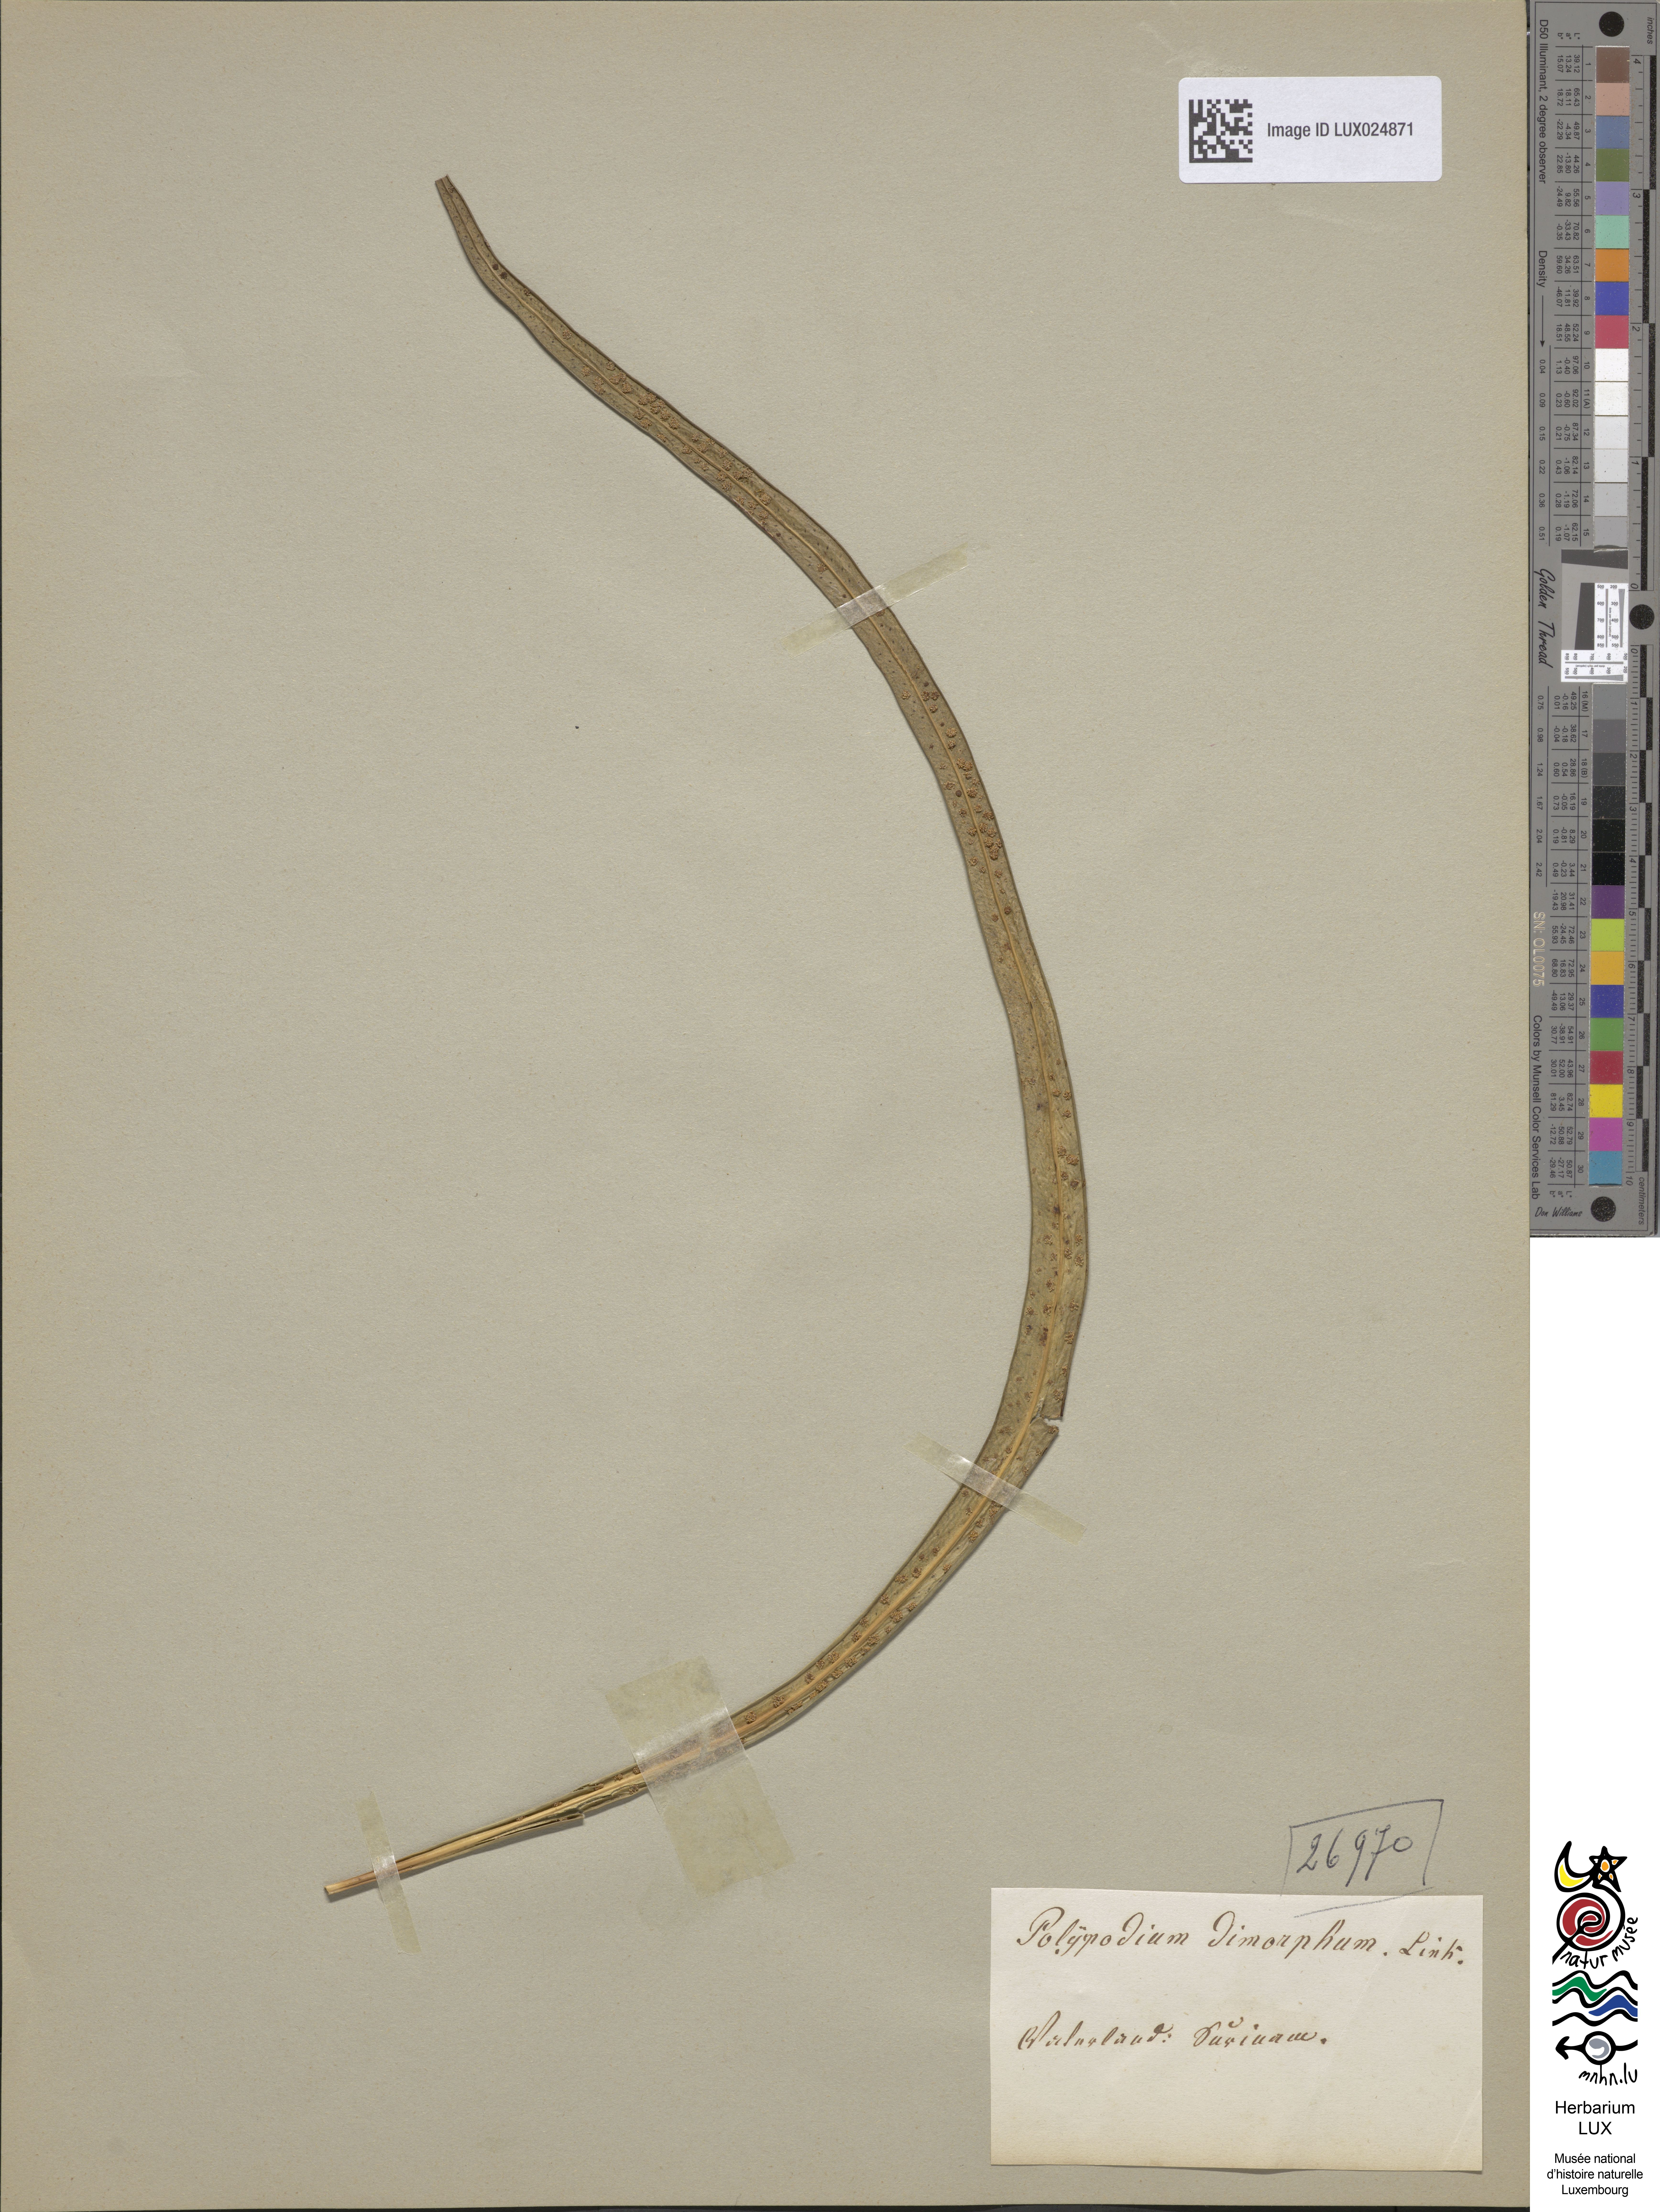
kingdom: Plantae
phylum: Tracheophyta
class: Polypodiopsida
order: Polypodiales
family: Polypodiaceae
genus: Campyloneurum
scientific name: Campyloneurum angustifolium
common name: Narrow-leaf strap fern
